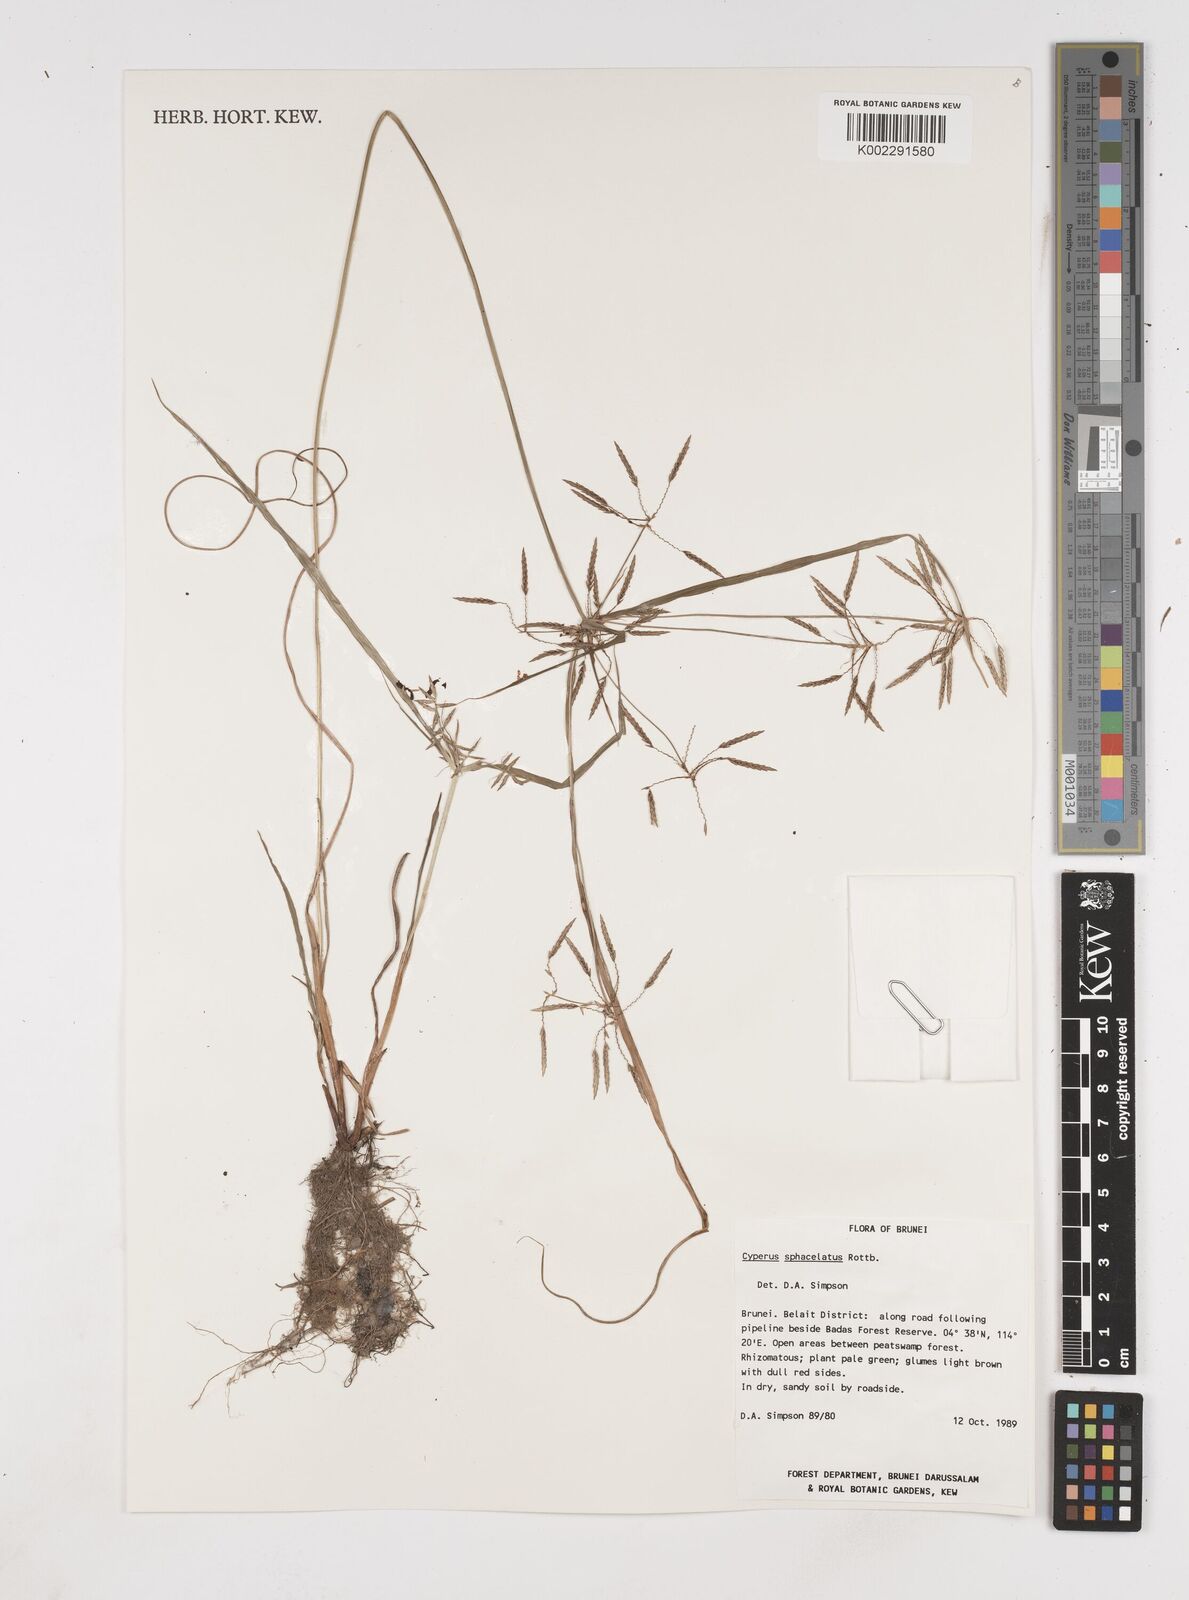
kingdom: Plantae
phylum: Tracheophyta
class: Liliopsida
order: Poales
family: Cyperaceae
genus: Cyperus
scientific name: Cyperus sphacelatus
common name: Roadside flatsedge
